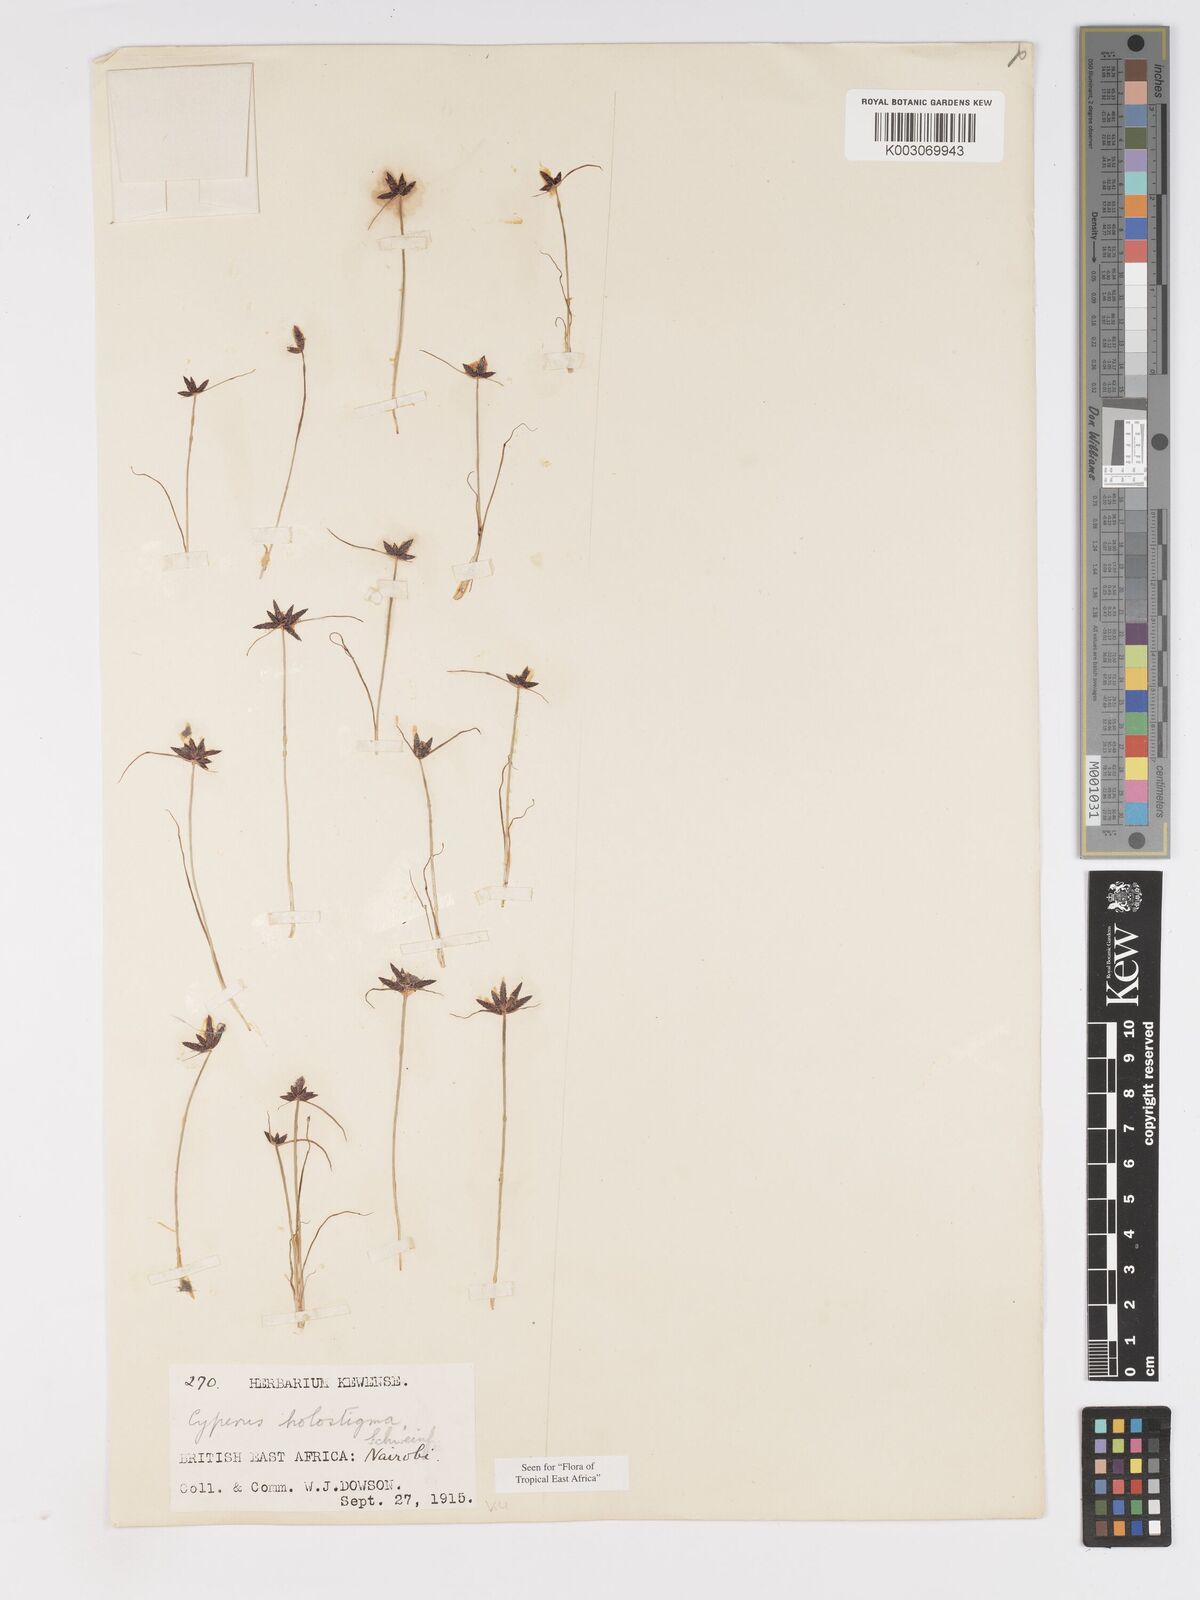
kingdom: Plantae
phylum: Tracheophyta
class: Liliopsida
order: Poales
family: Cyperaceae
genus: Cyperus
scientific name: Cyperus holostigma
